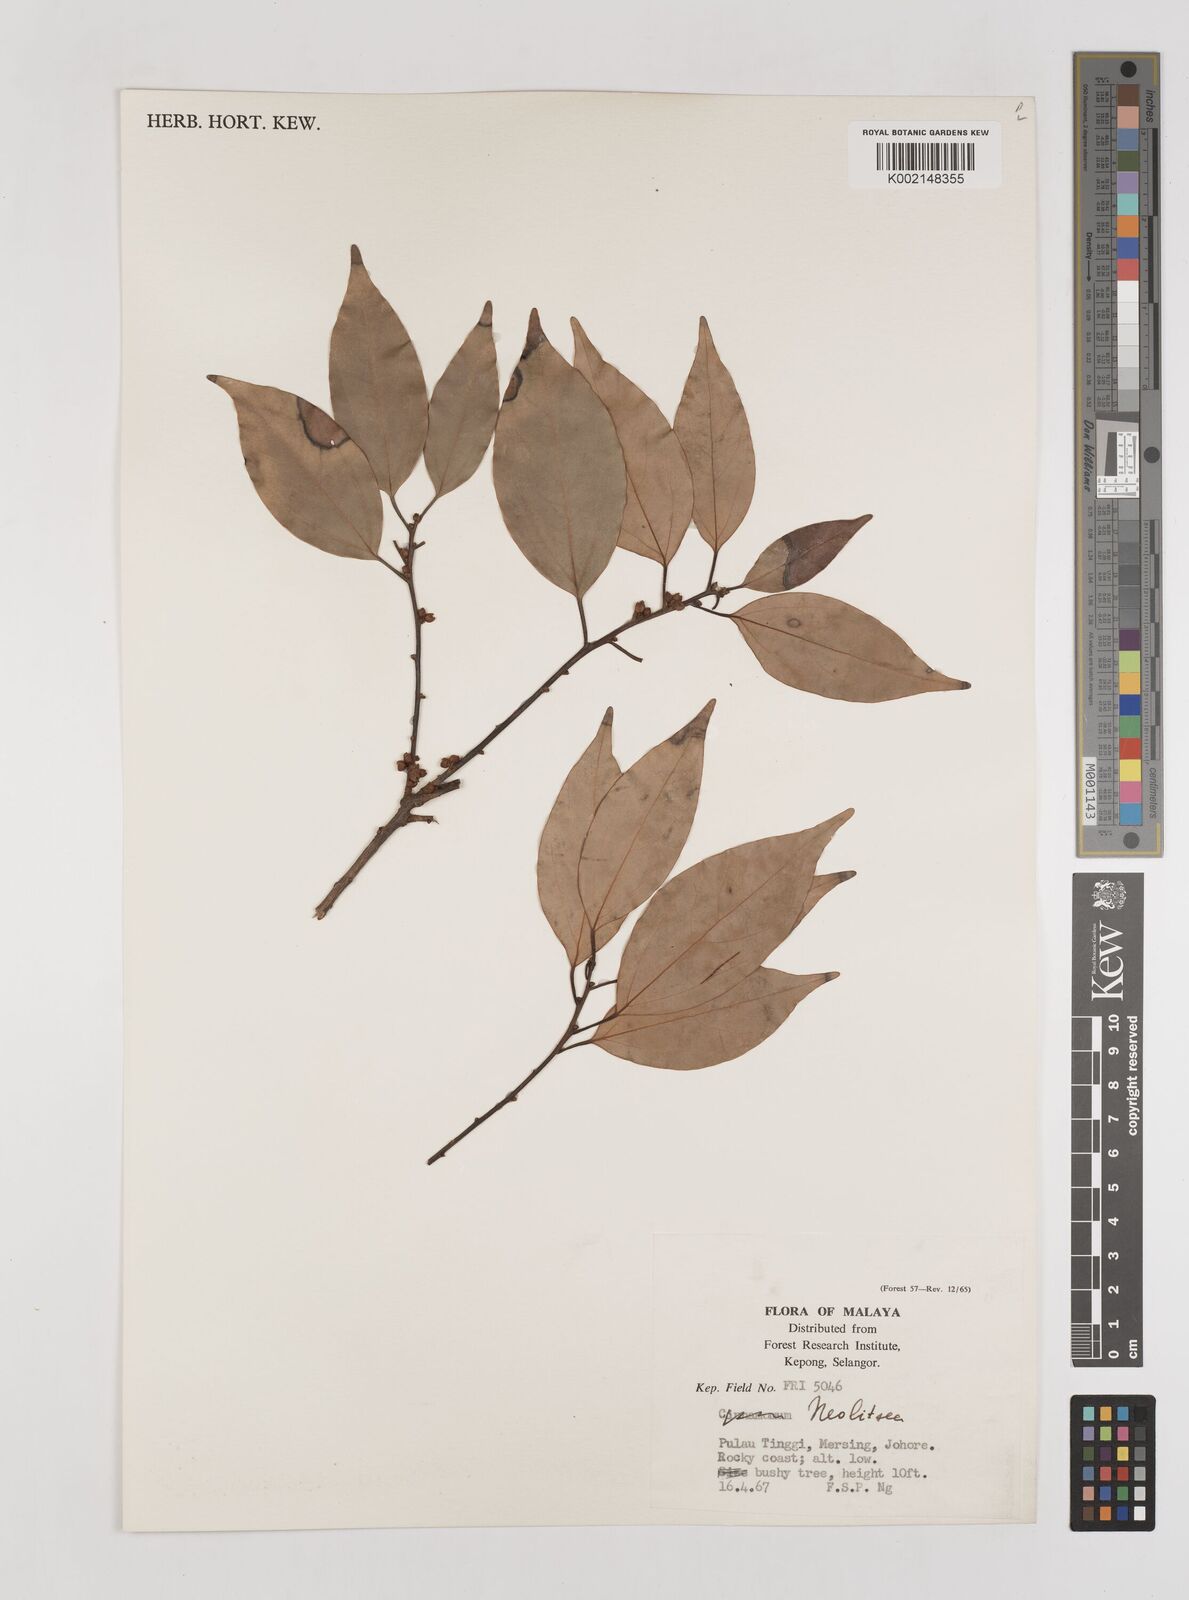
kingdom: Plantae
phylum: Tracheophyta
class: Magnoliopsida
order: Laurales
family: Lauraceae
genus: Neolitsea
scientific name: Neolitsea
